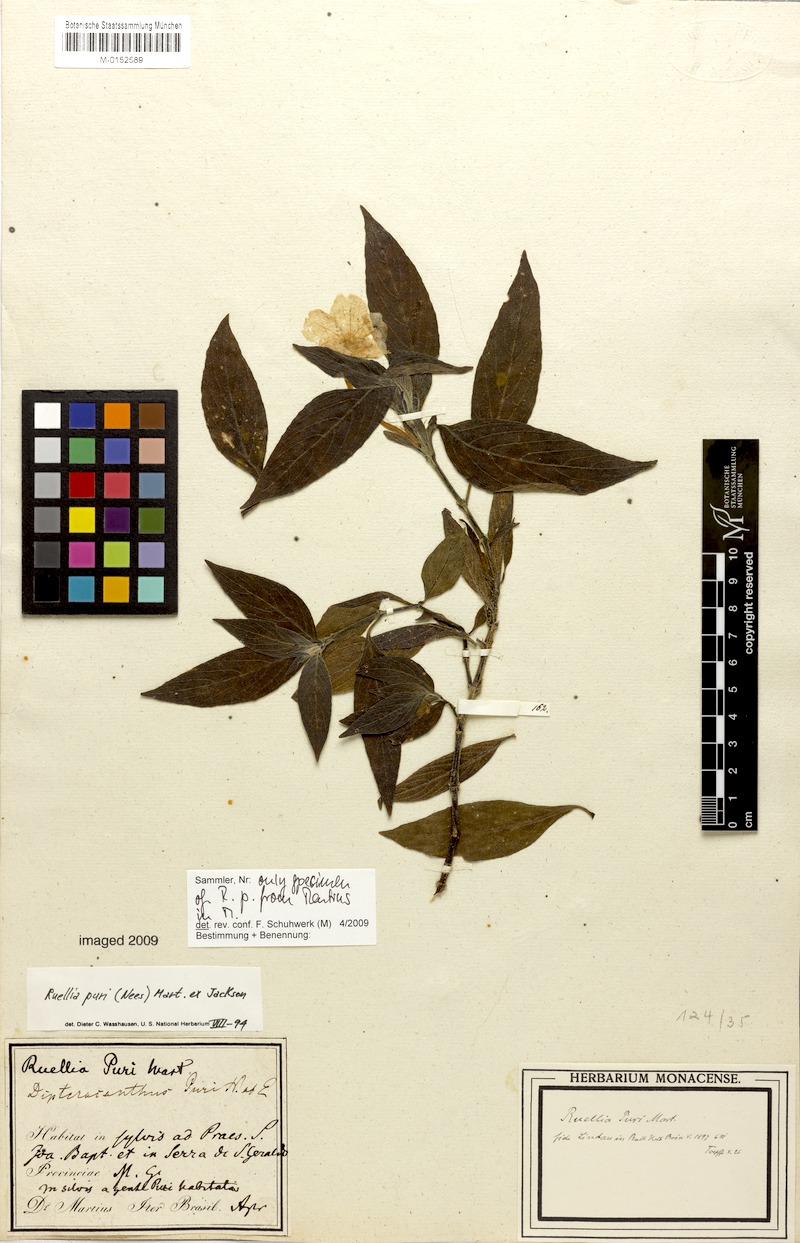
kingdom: Plantae
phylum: Tracheophyta
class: Magnoliopsida
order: Lamiales
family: Acanthaceae
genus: Ruellia
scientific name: Ruellia jussieuoides
